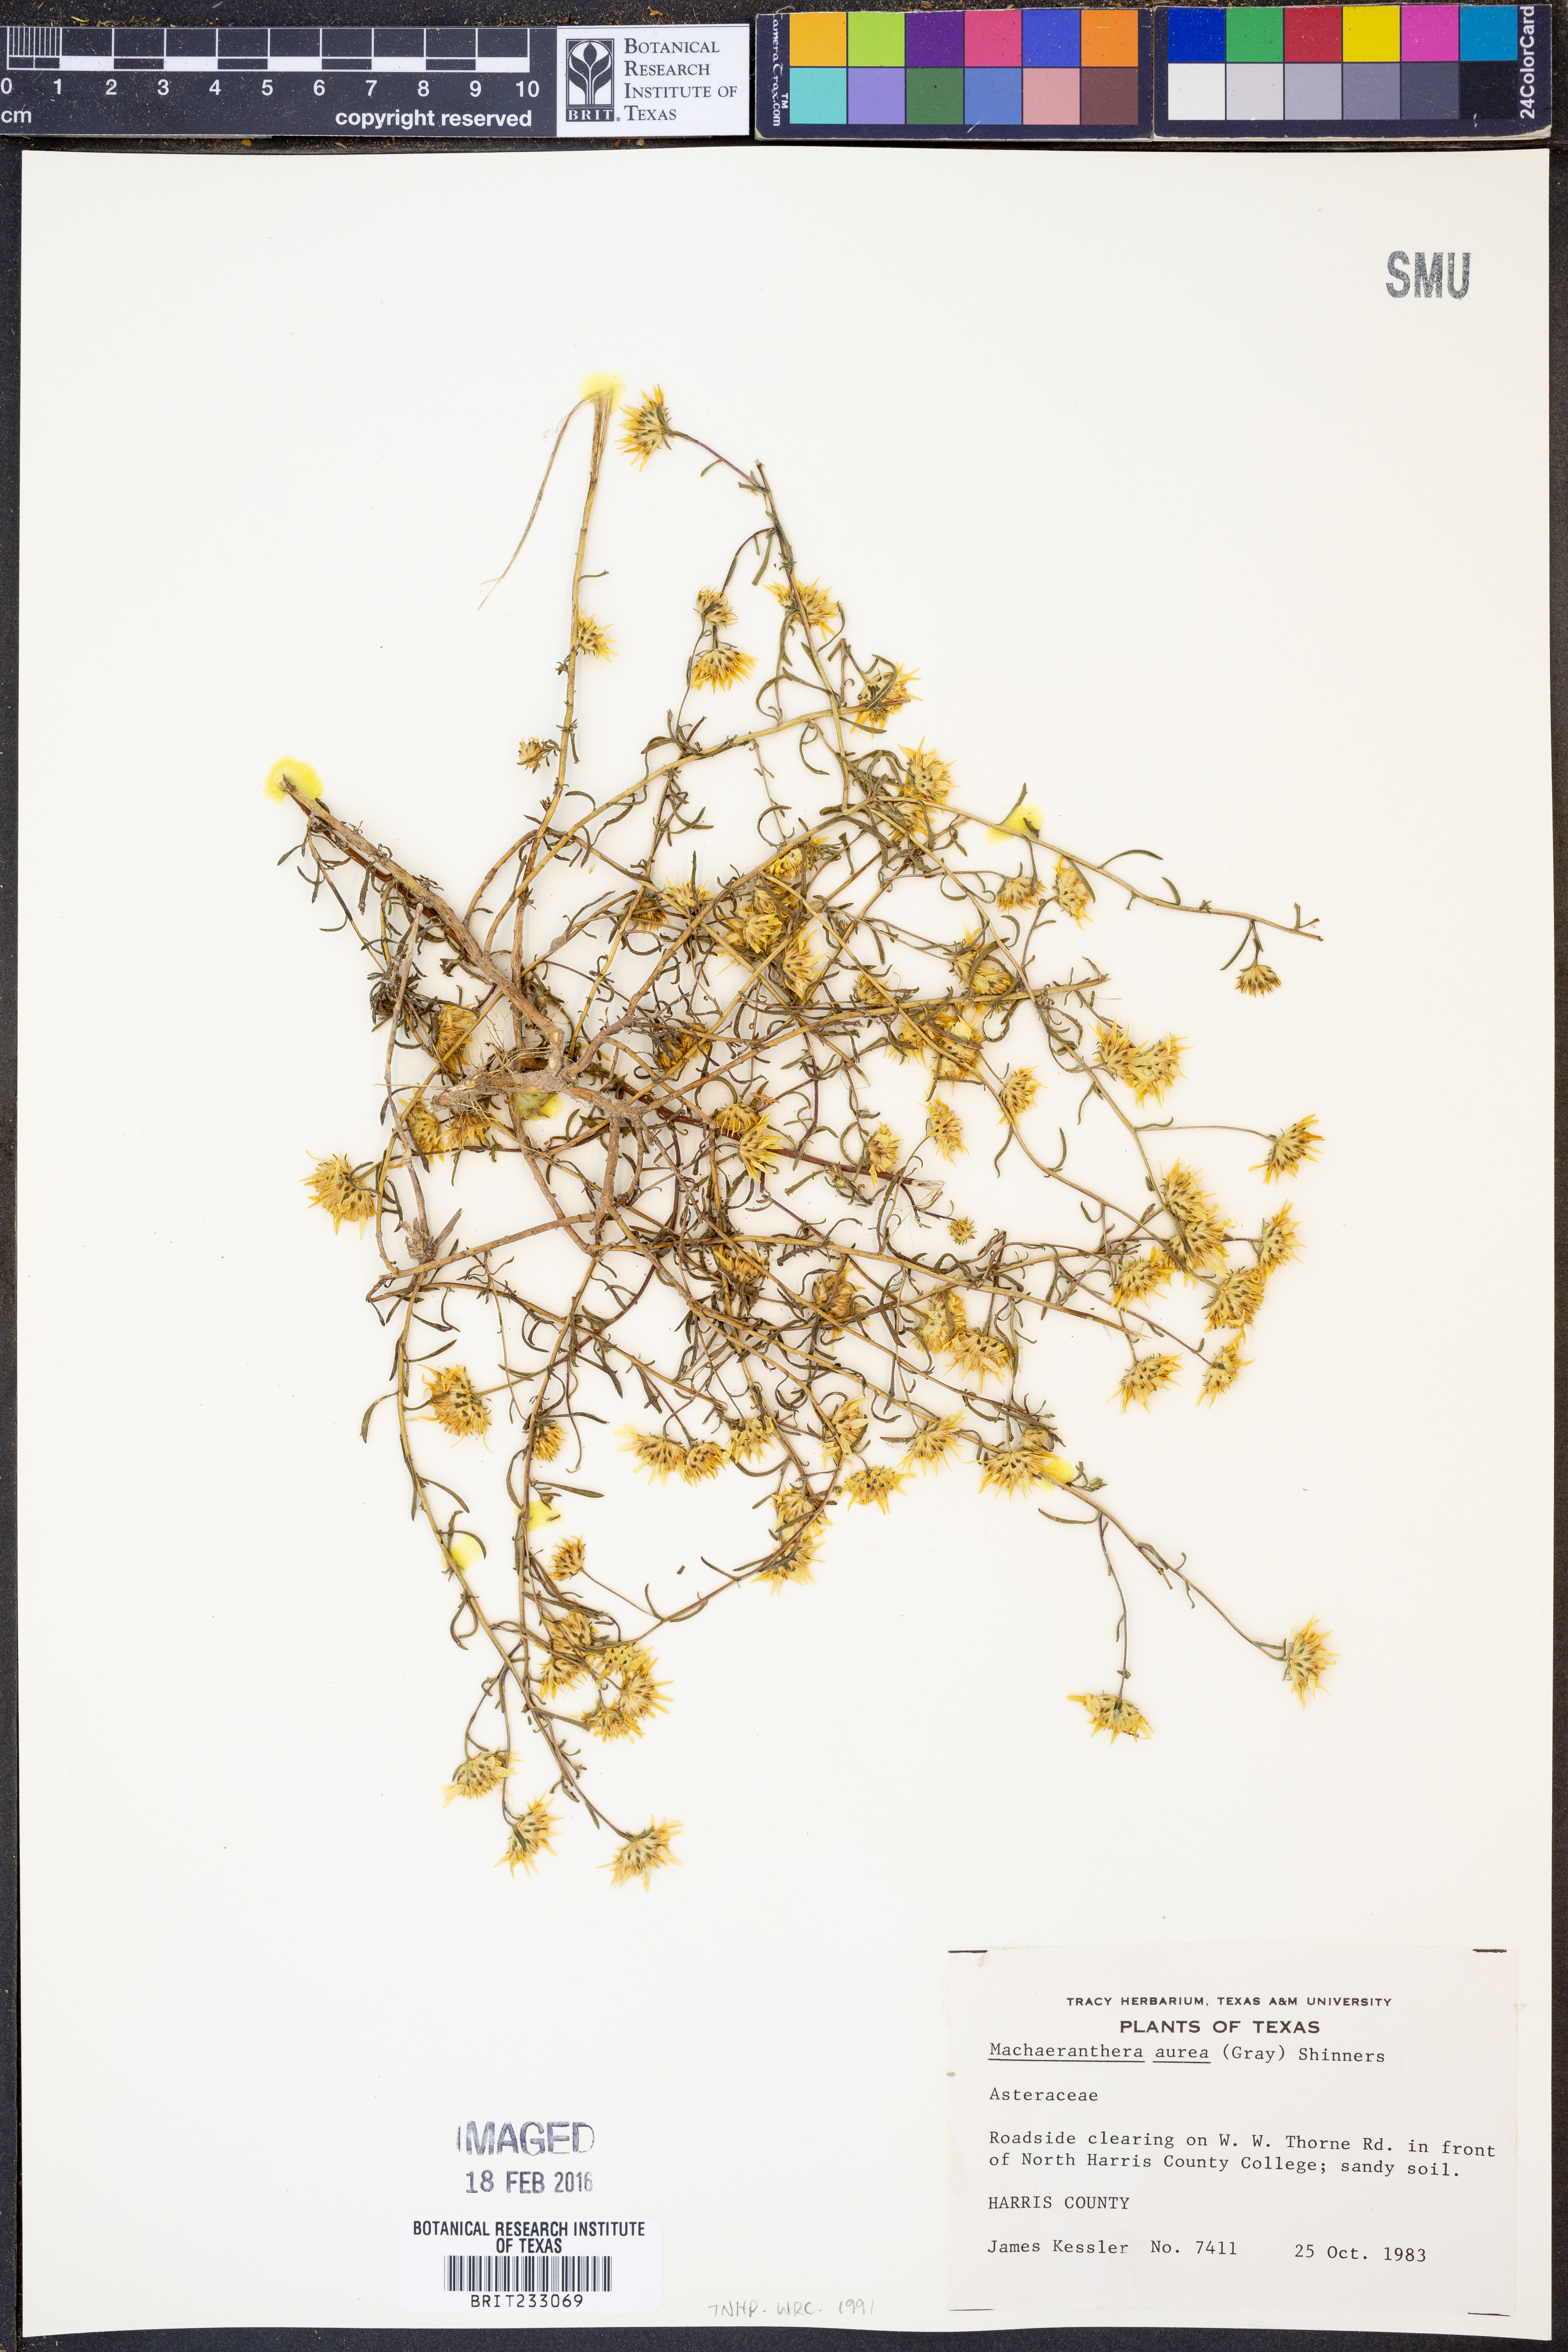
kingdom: Plantae
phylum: Tracheophyta
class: Magnoliopsida
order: Asterales
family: Asteraceae
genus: Rayjacksonia
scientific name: Rayjacksonia aurea
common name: Houston camphor daisy
